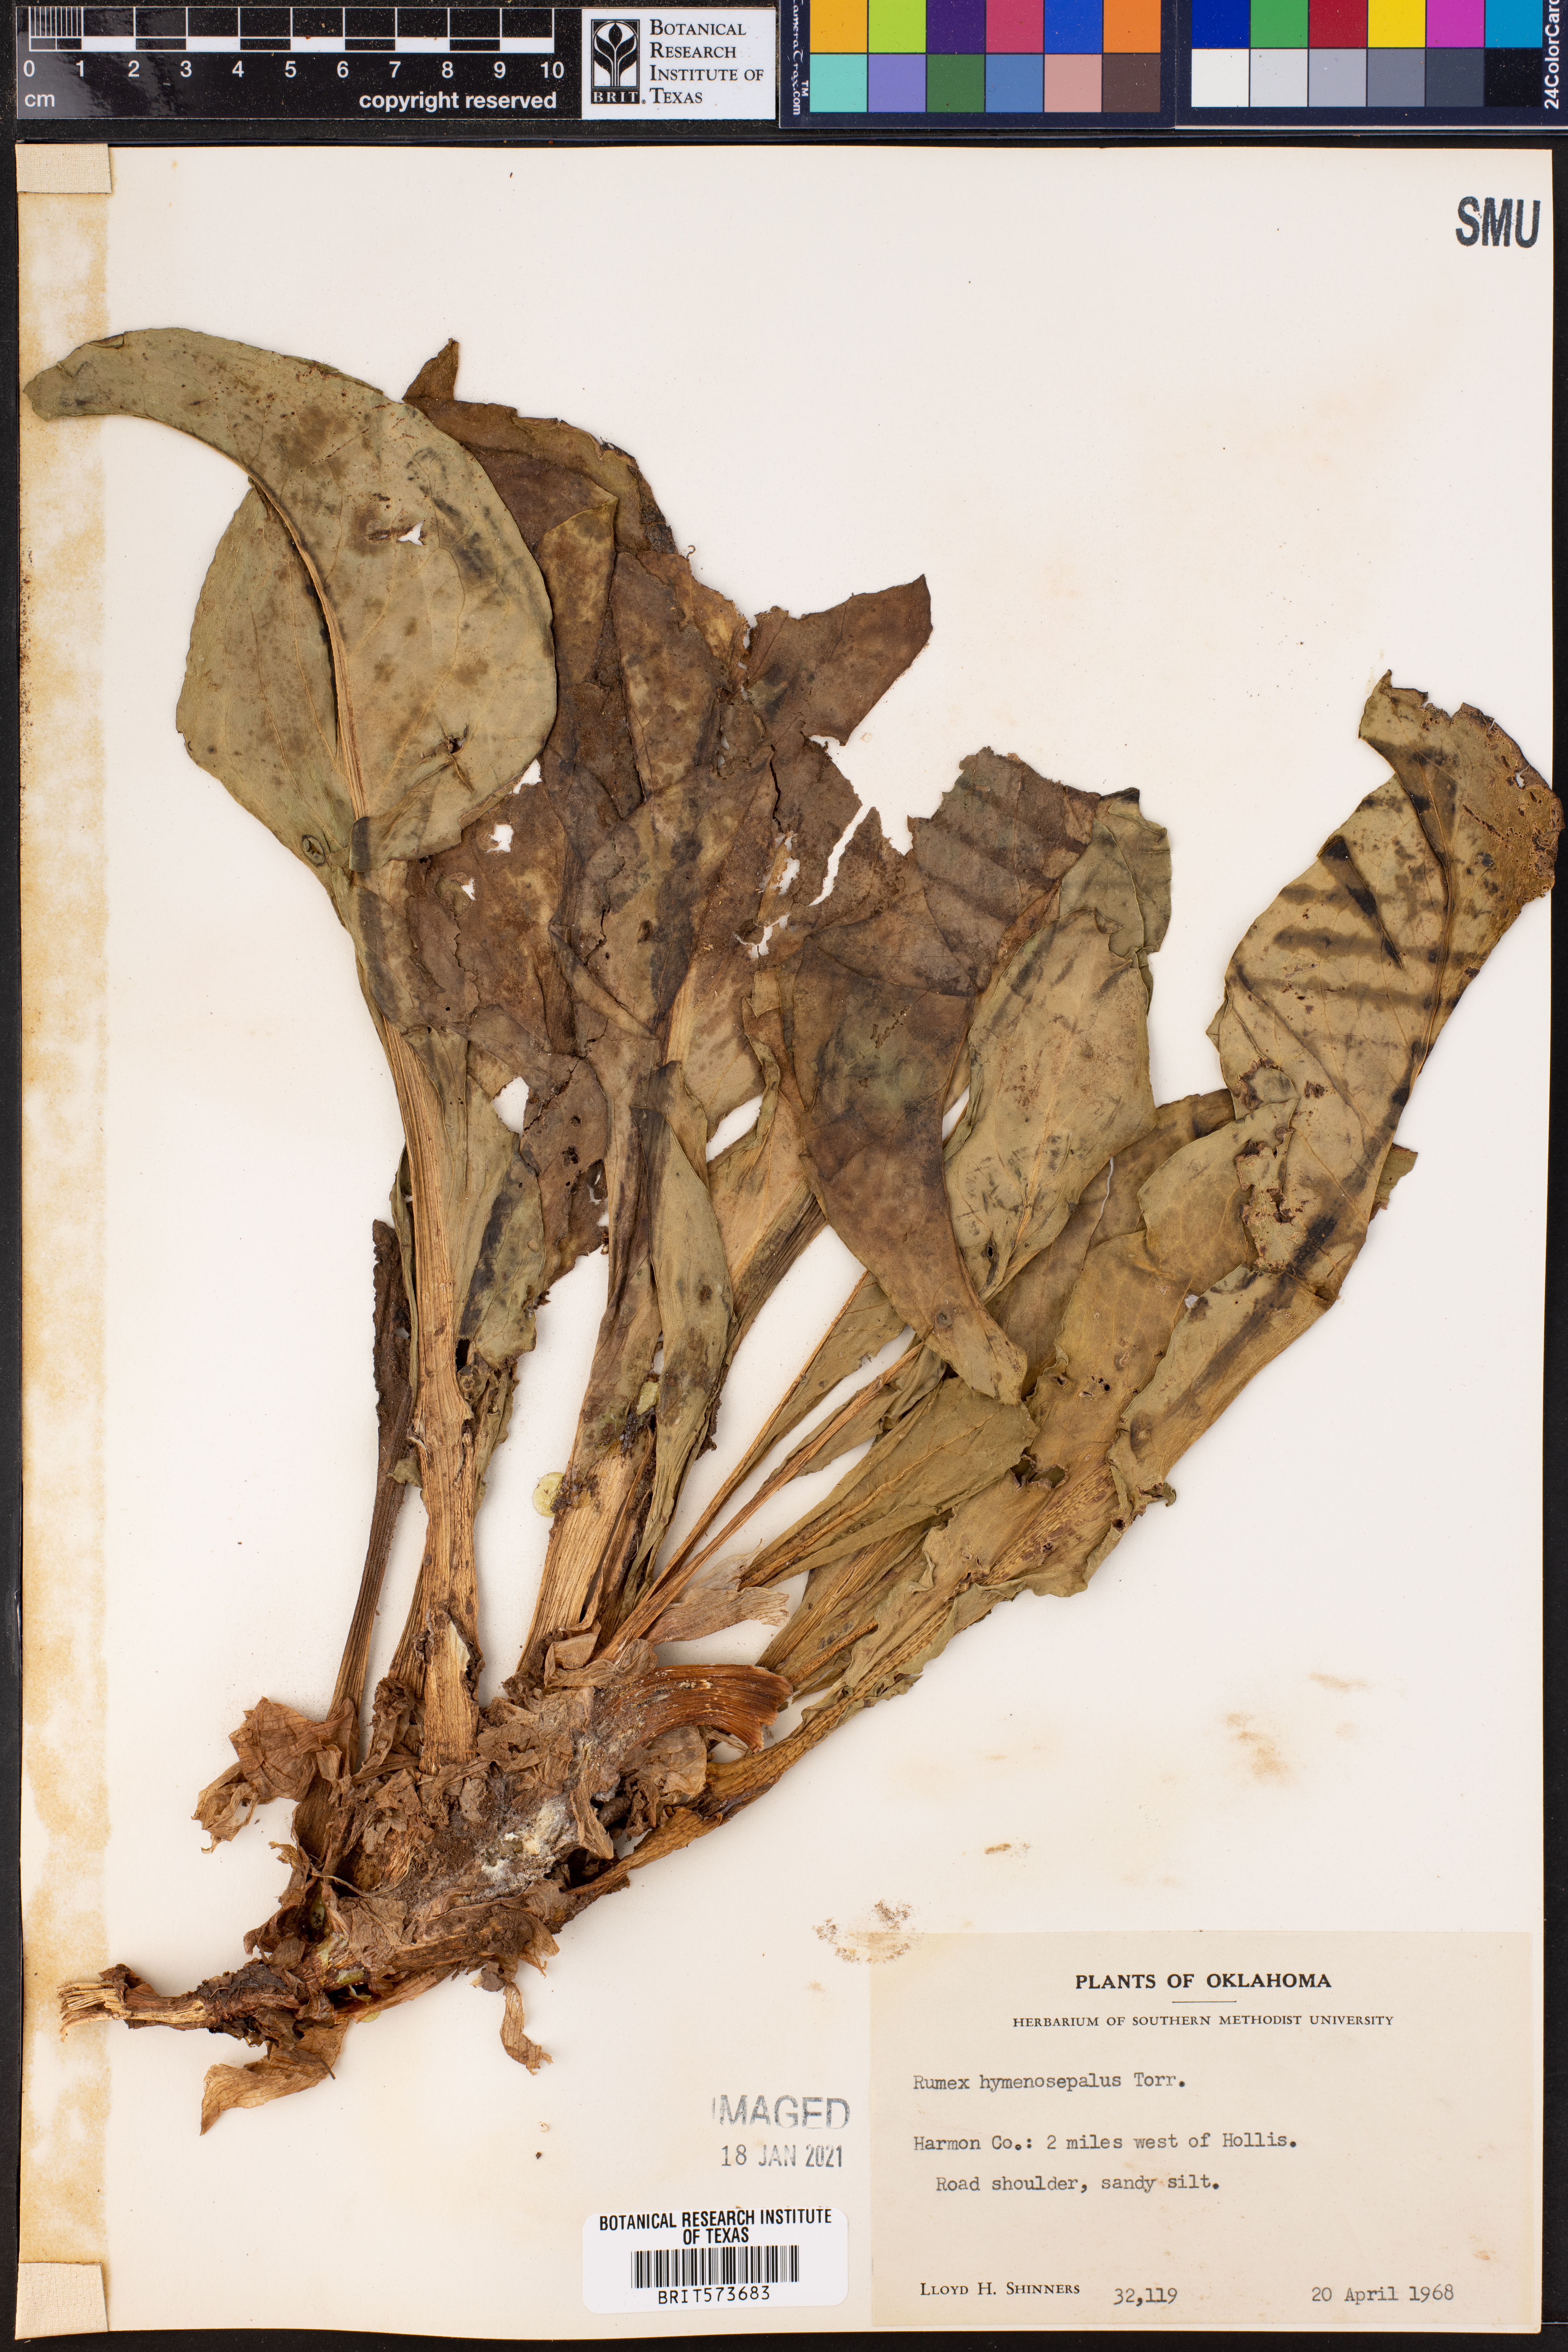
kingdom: Plantae
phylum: Tracheophyta
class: Magnoliopsida
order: Caryophyllales
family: Polygonaceae
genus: Rumex
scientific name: Rumex hymenosepalus
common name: Ganagra
